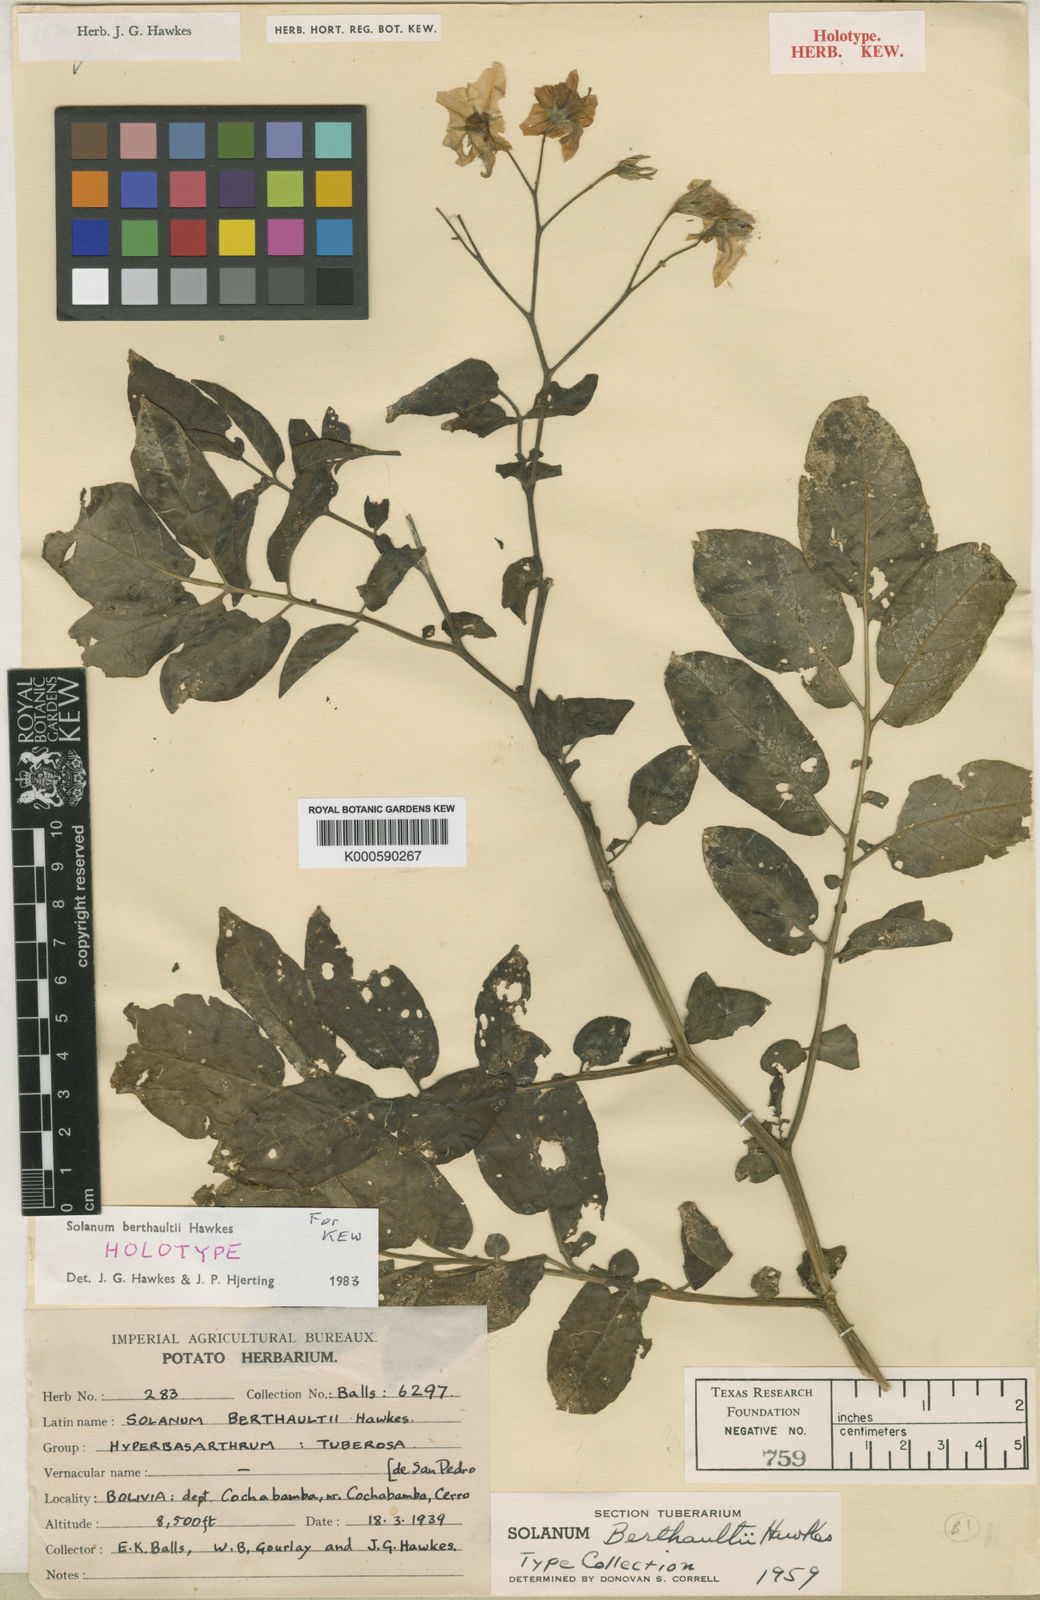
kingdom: Plantae
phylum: Tracheophyta
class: Magnoliopsida
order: Solanales
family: Solanaceae
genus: Solanum
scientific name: Solanum berthaultii
